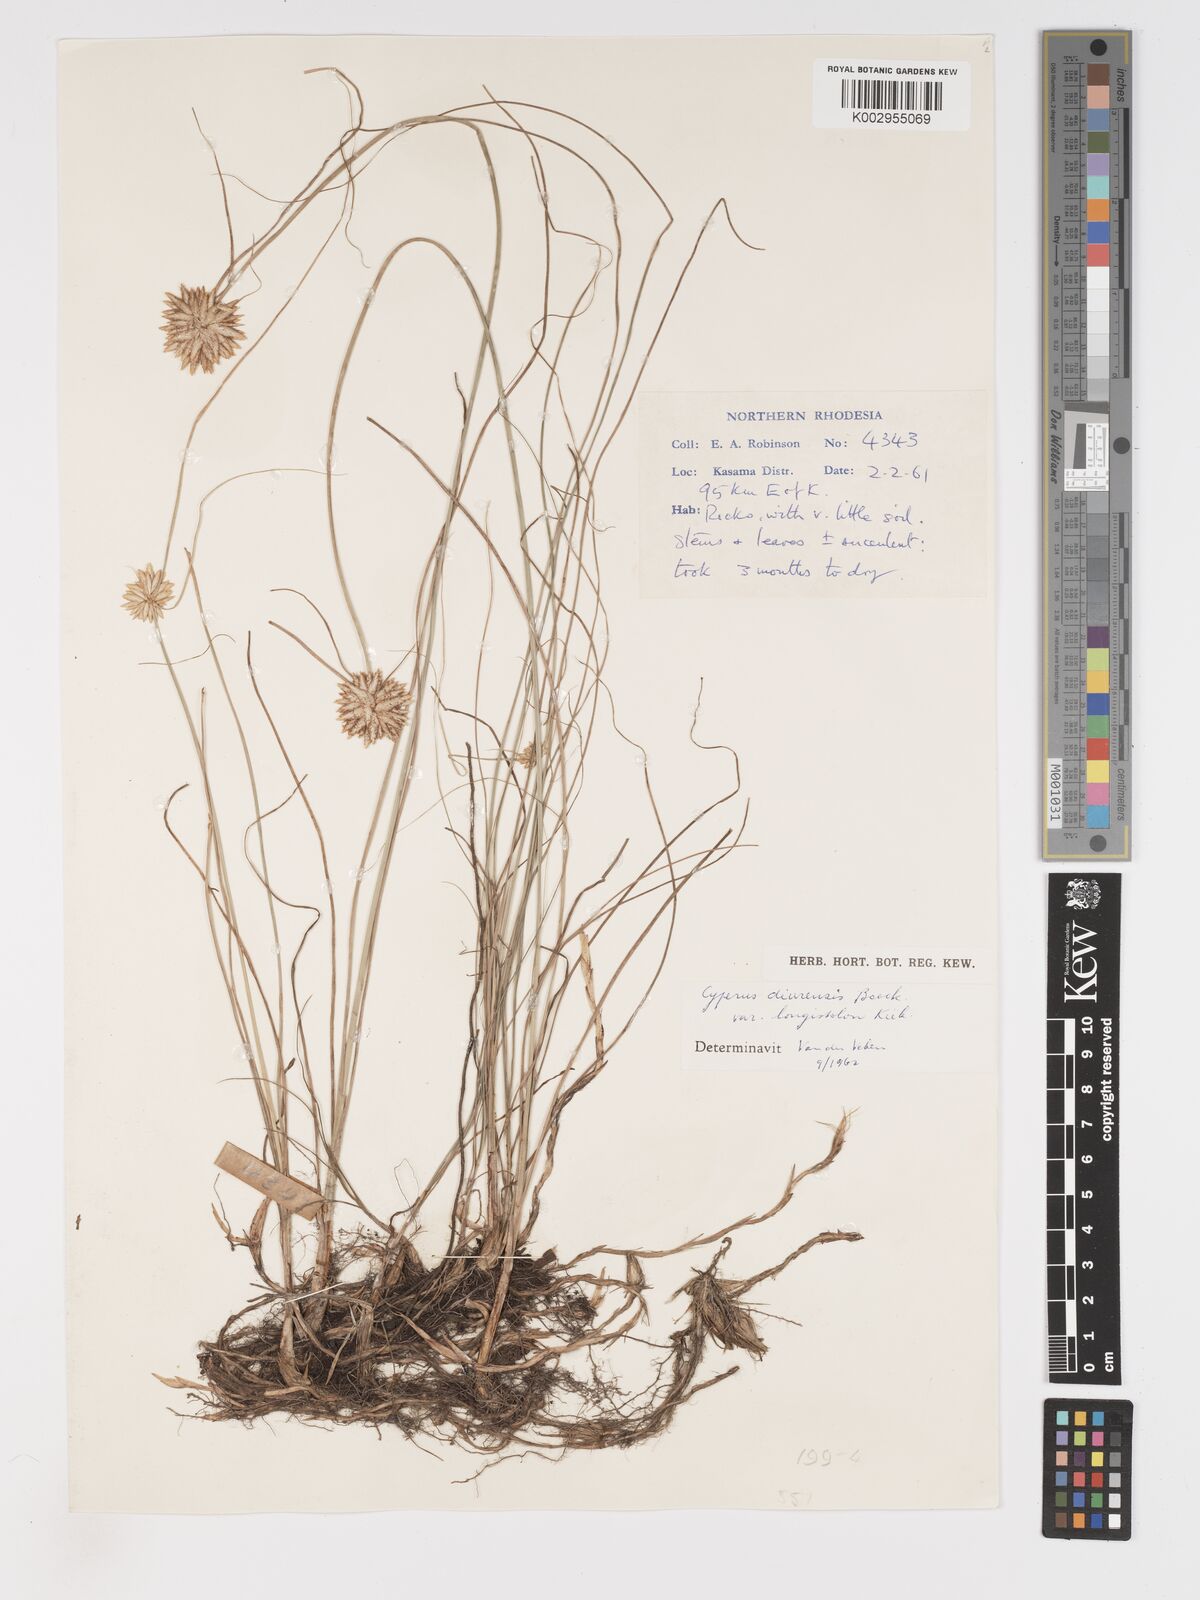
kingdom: Plantae
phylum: Tracheophyta
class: Liliopsida
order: Poales
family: Cyperaceae
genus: Cyperus
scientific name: Cyperus diurensis
